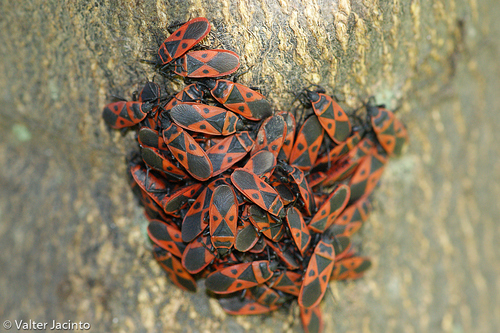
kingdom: Animalia
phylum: Arthropoda
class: Insecta
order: Hemiptera
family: Pyrrhocoridae
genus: Scantius
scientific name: Scantius aegyptius
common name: Red bug
